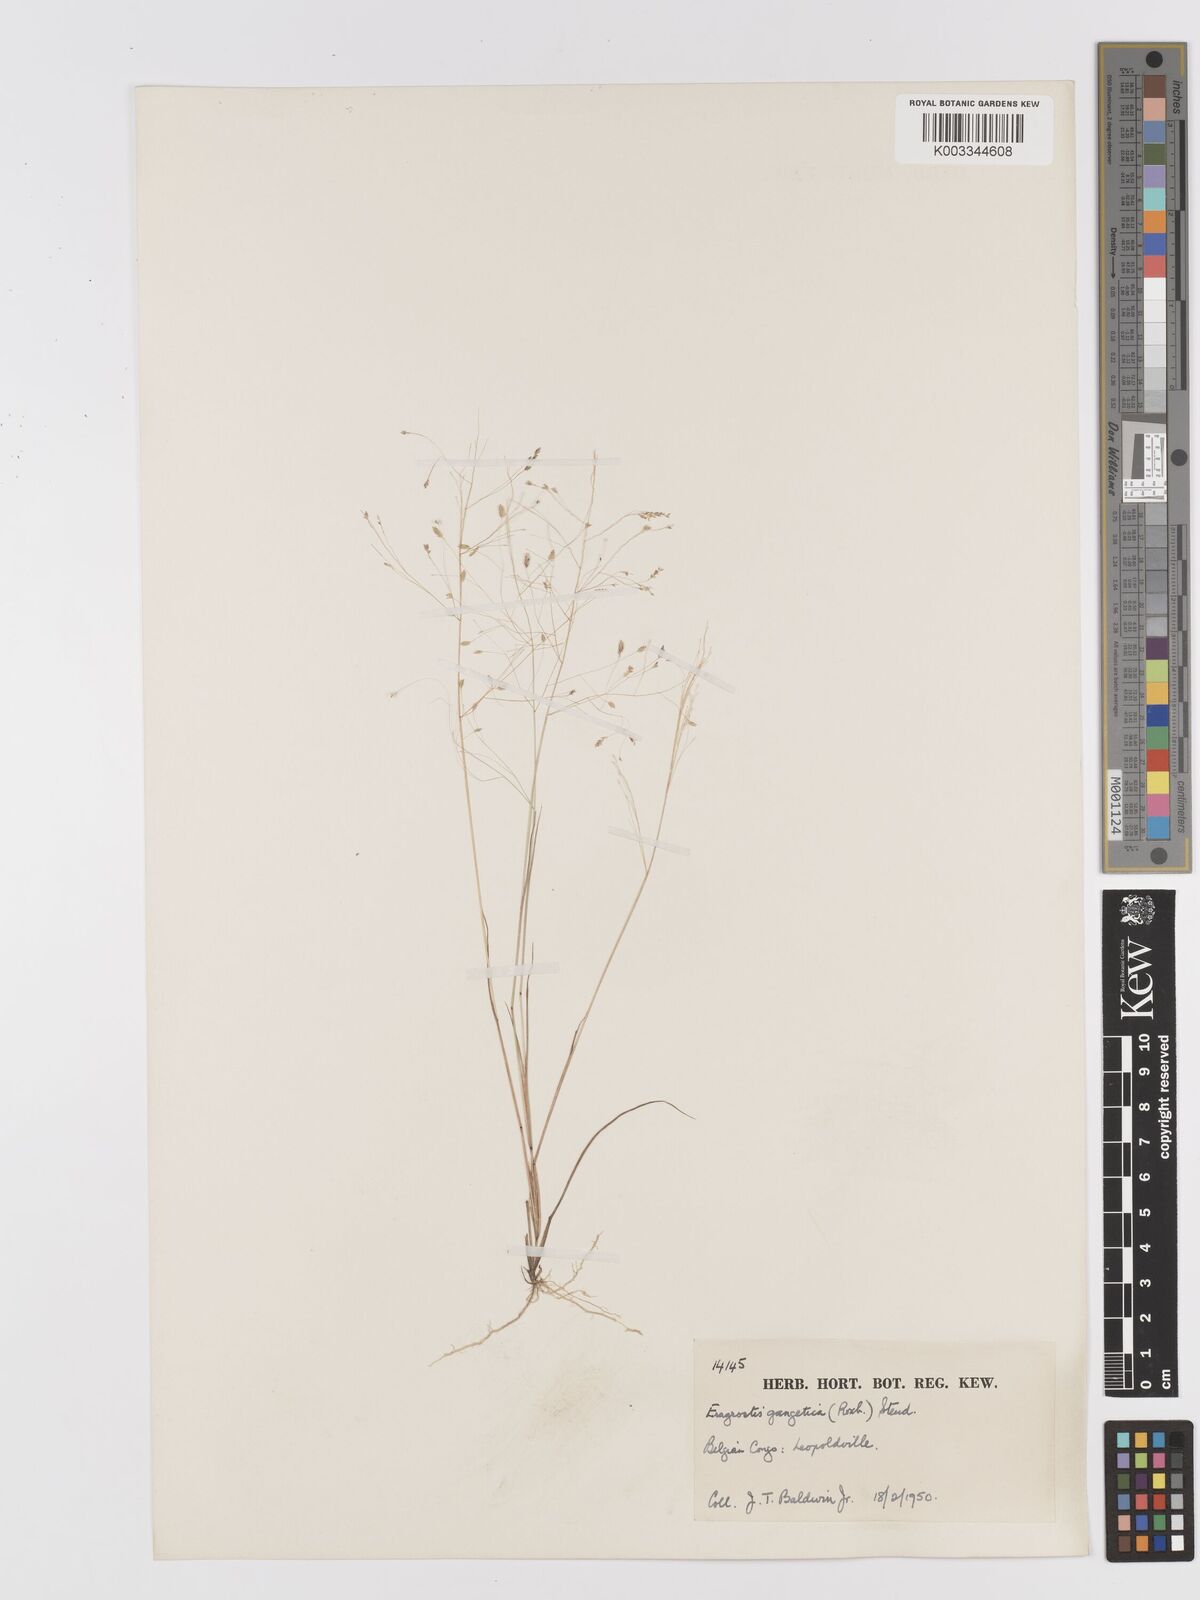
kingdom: Plantae
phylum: Tracheophyta
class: Liliopsida
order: Poales
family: Poaceae
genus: Eragrostis
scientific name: Eragrostis gangetica
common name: Slimflower lovegrass
